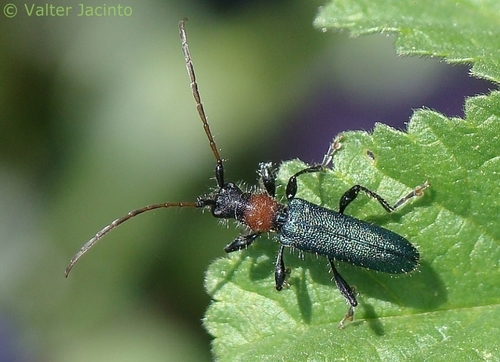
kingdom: Animalia
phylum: Arthropoda
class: Insecta
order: Coleoptera
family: Cerambycidae
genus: Certallum
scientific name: Certallum ebulinum
